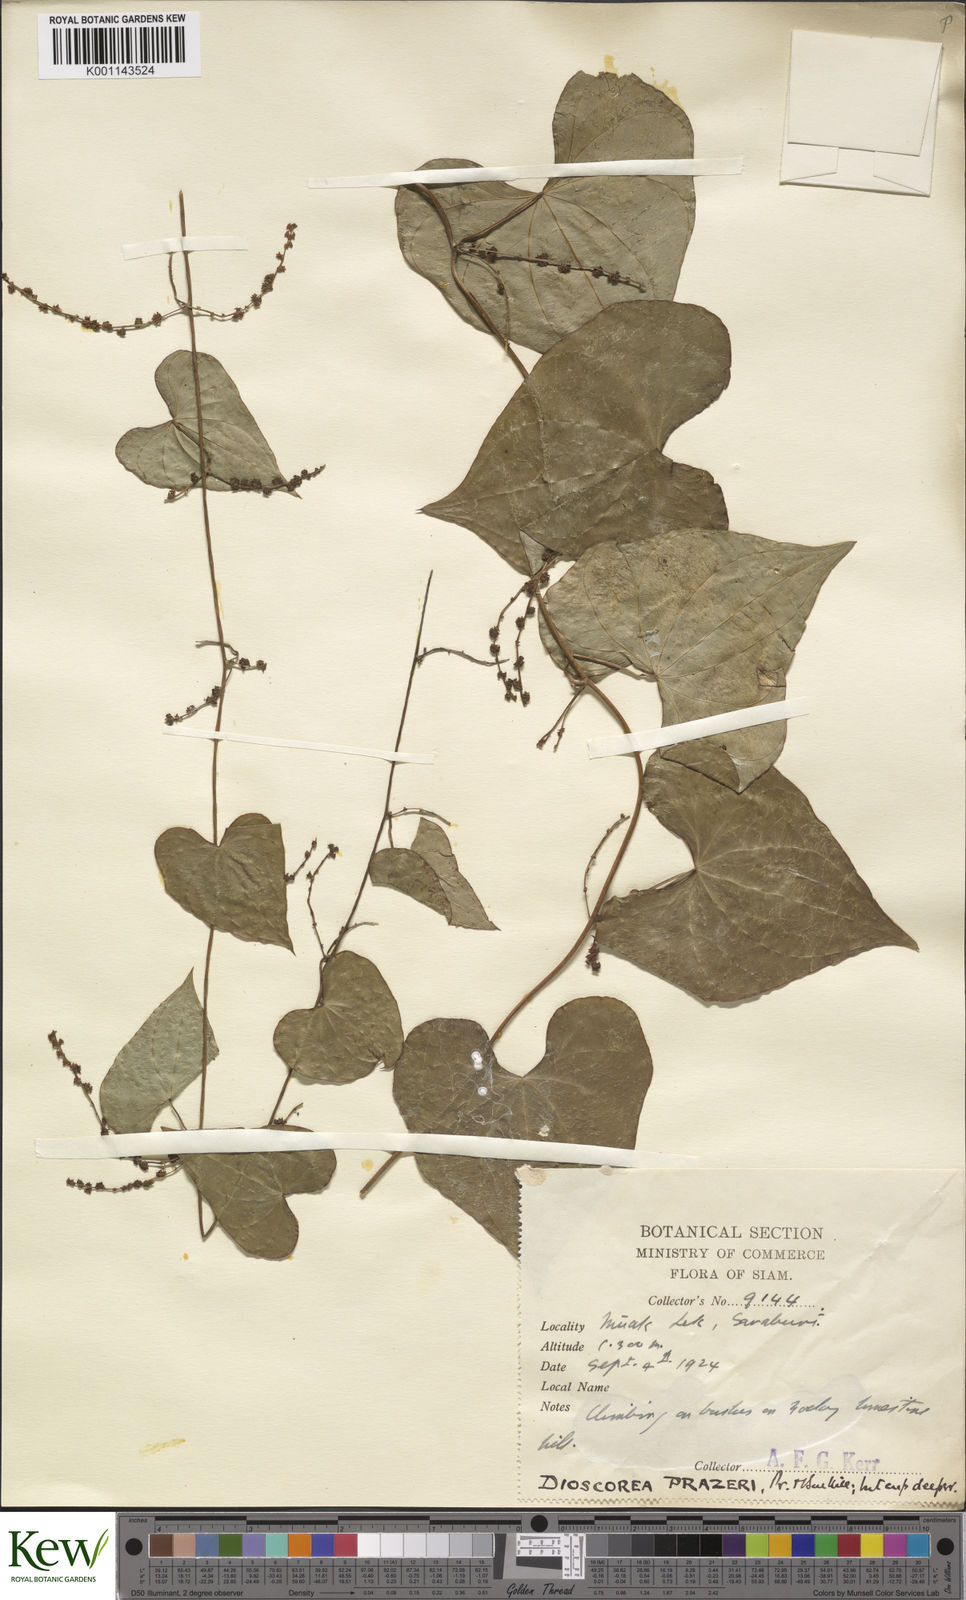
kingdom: Plantae
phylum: Tracheophyta
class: Liliopsida
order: Dioscoreales
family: Dioscoreaceae
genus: Dioscorea
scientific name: Dioscorea prazeri
